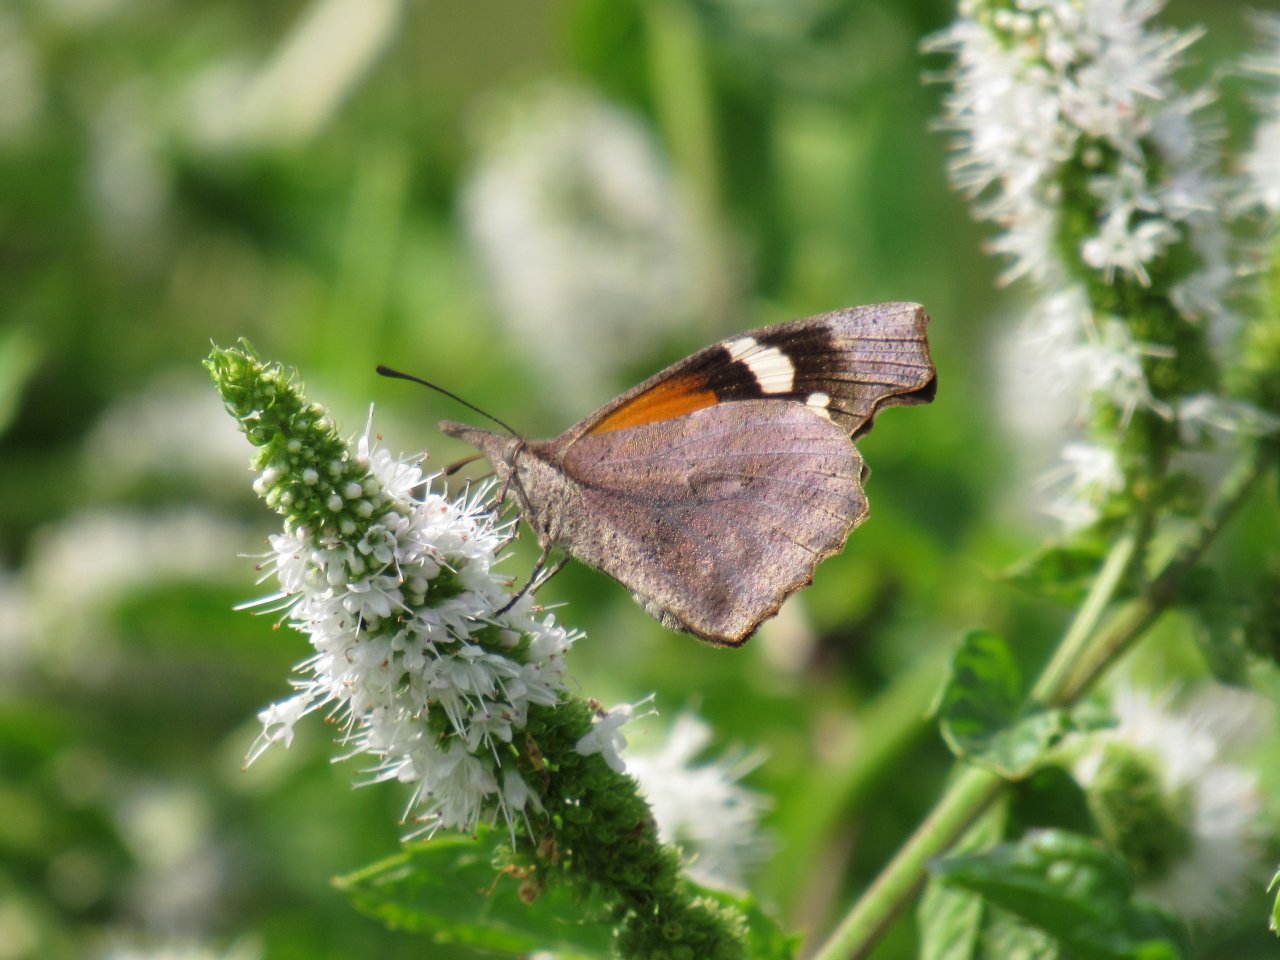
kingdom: Animalia
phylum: Arthropoda
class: Insecta
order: Lepidoptera
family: Nymphalidae
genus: Libytheana
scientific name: Libytheana carinenta
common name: American Snout
